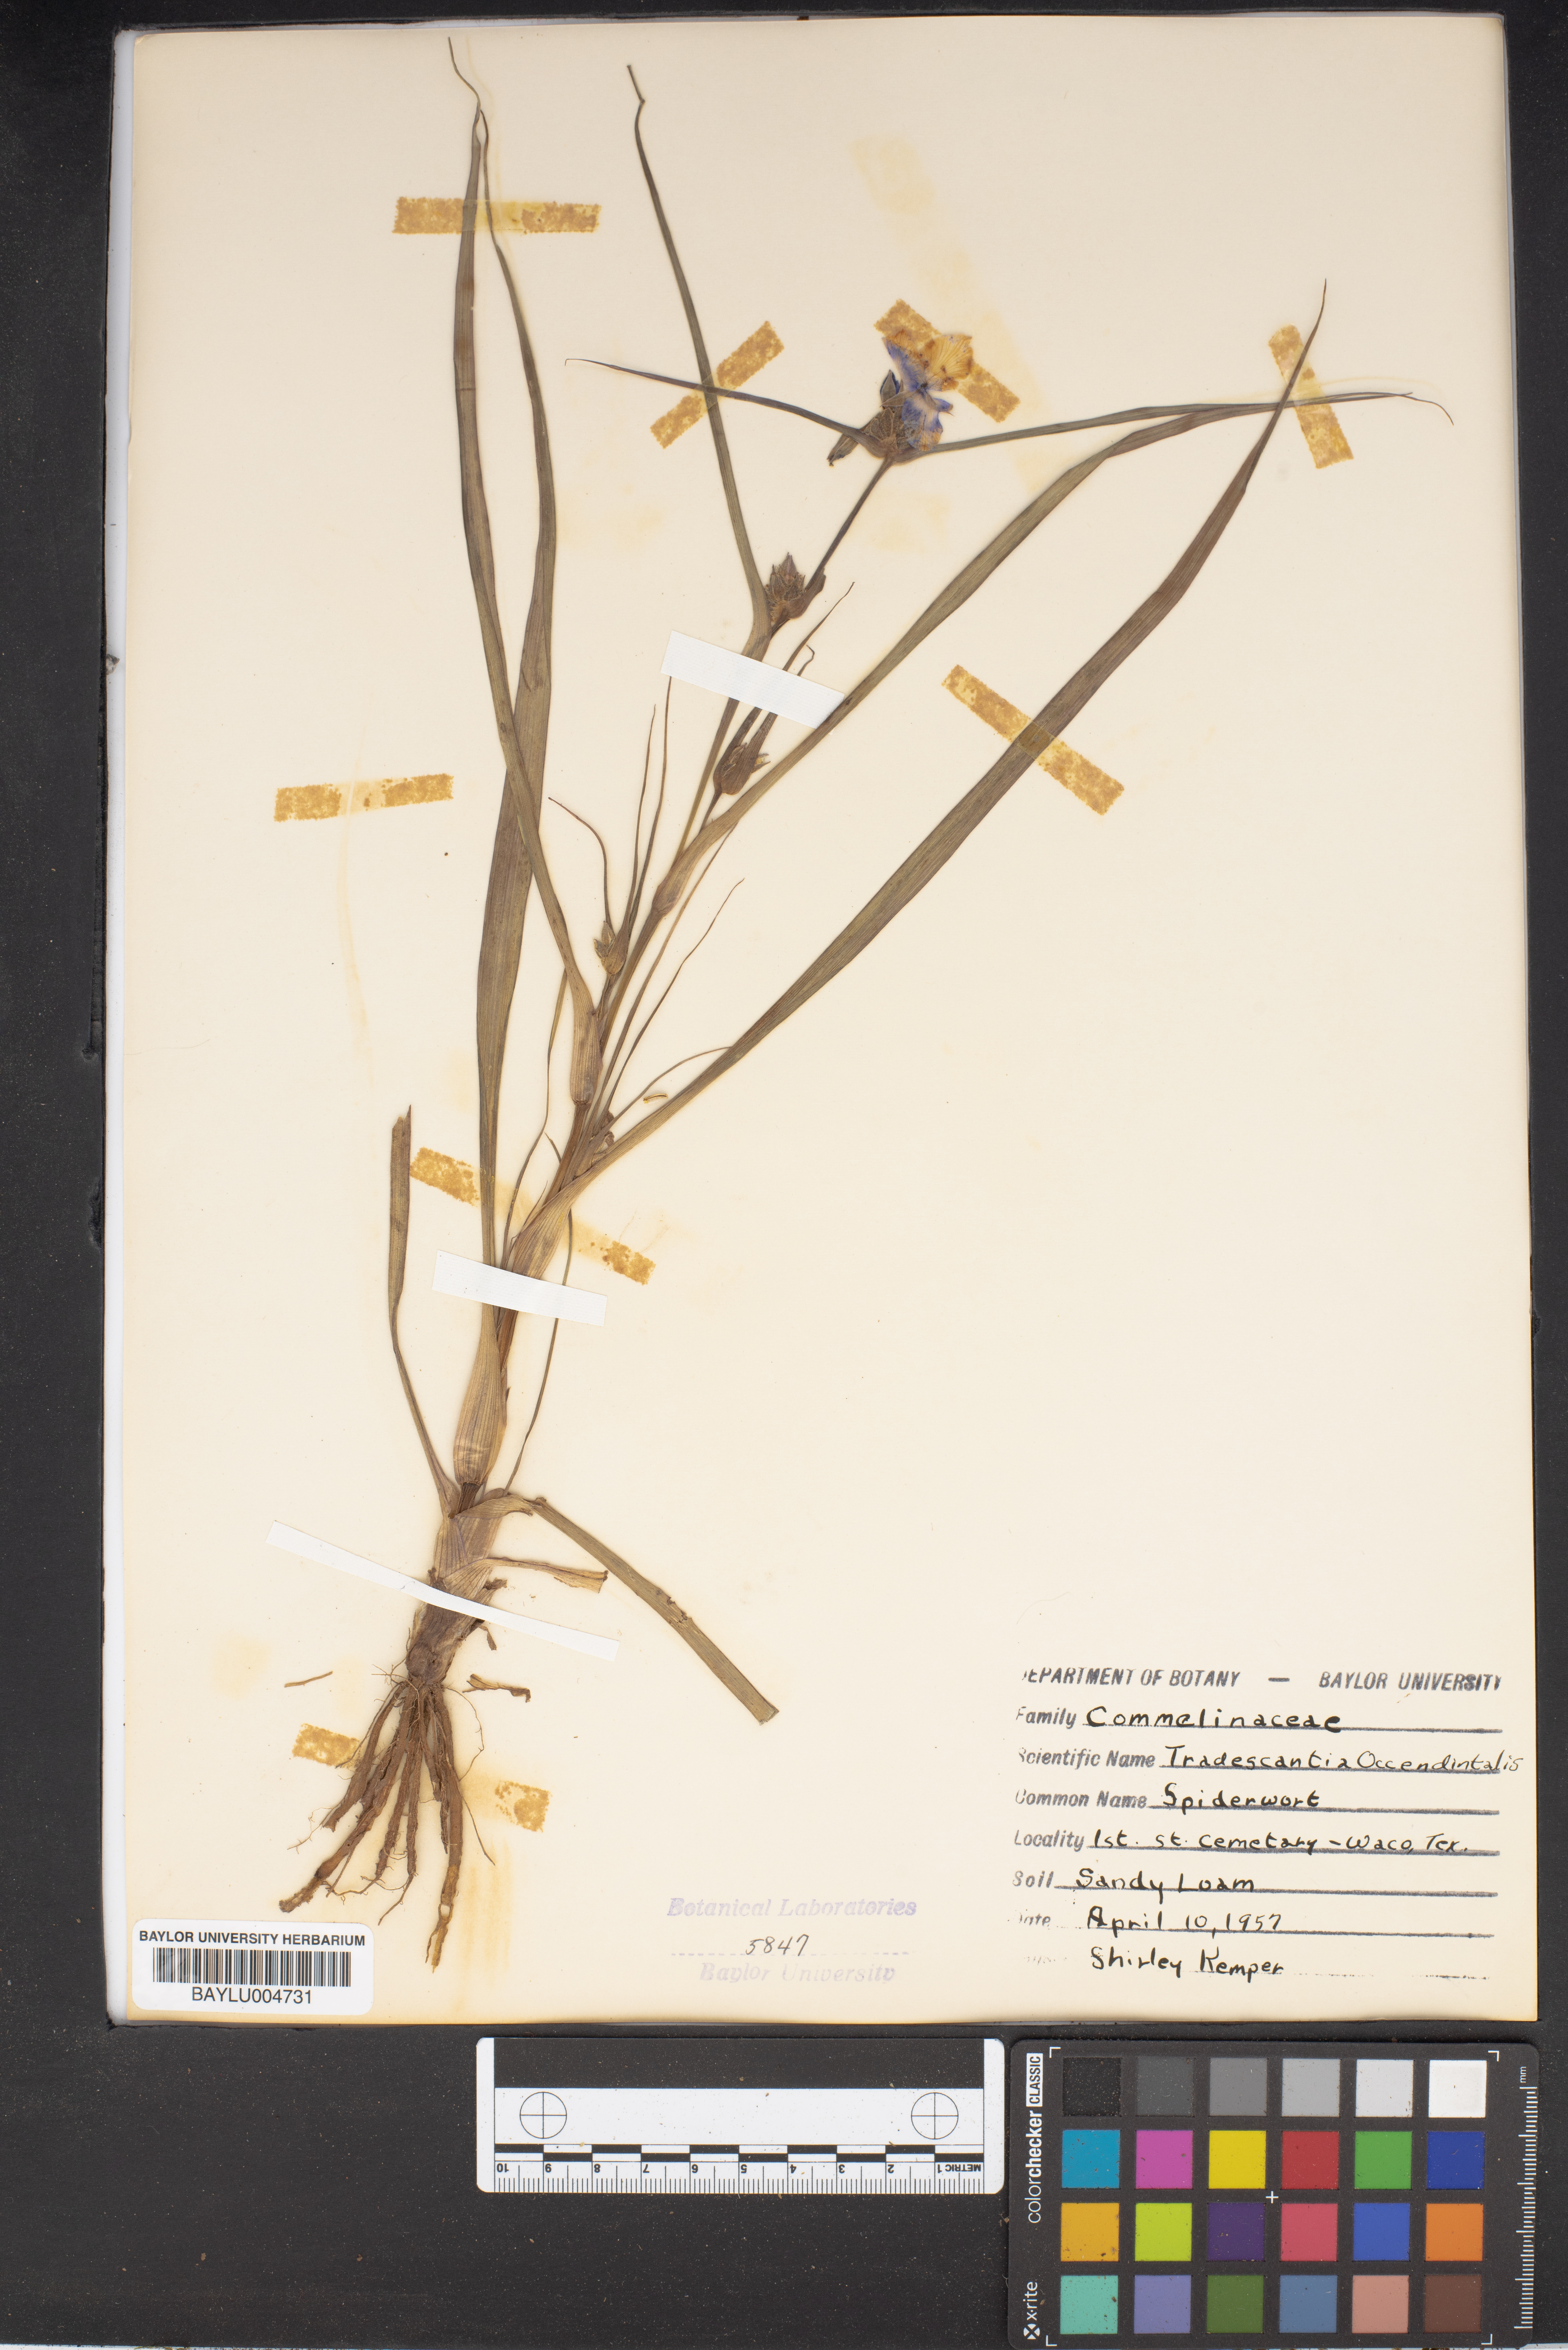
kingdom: Plantae
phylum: Tracheophyta
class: Liliopsida
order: Commelinales
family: Commelinaceae
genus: Tradescantia
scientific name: Tradescantia occidentalis
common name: Prairie spiderwort
